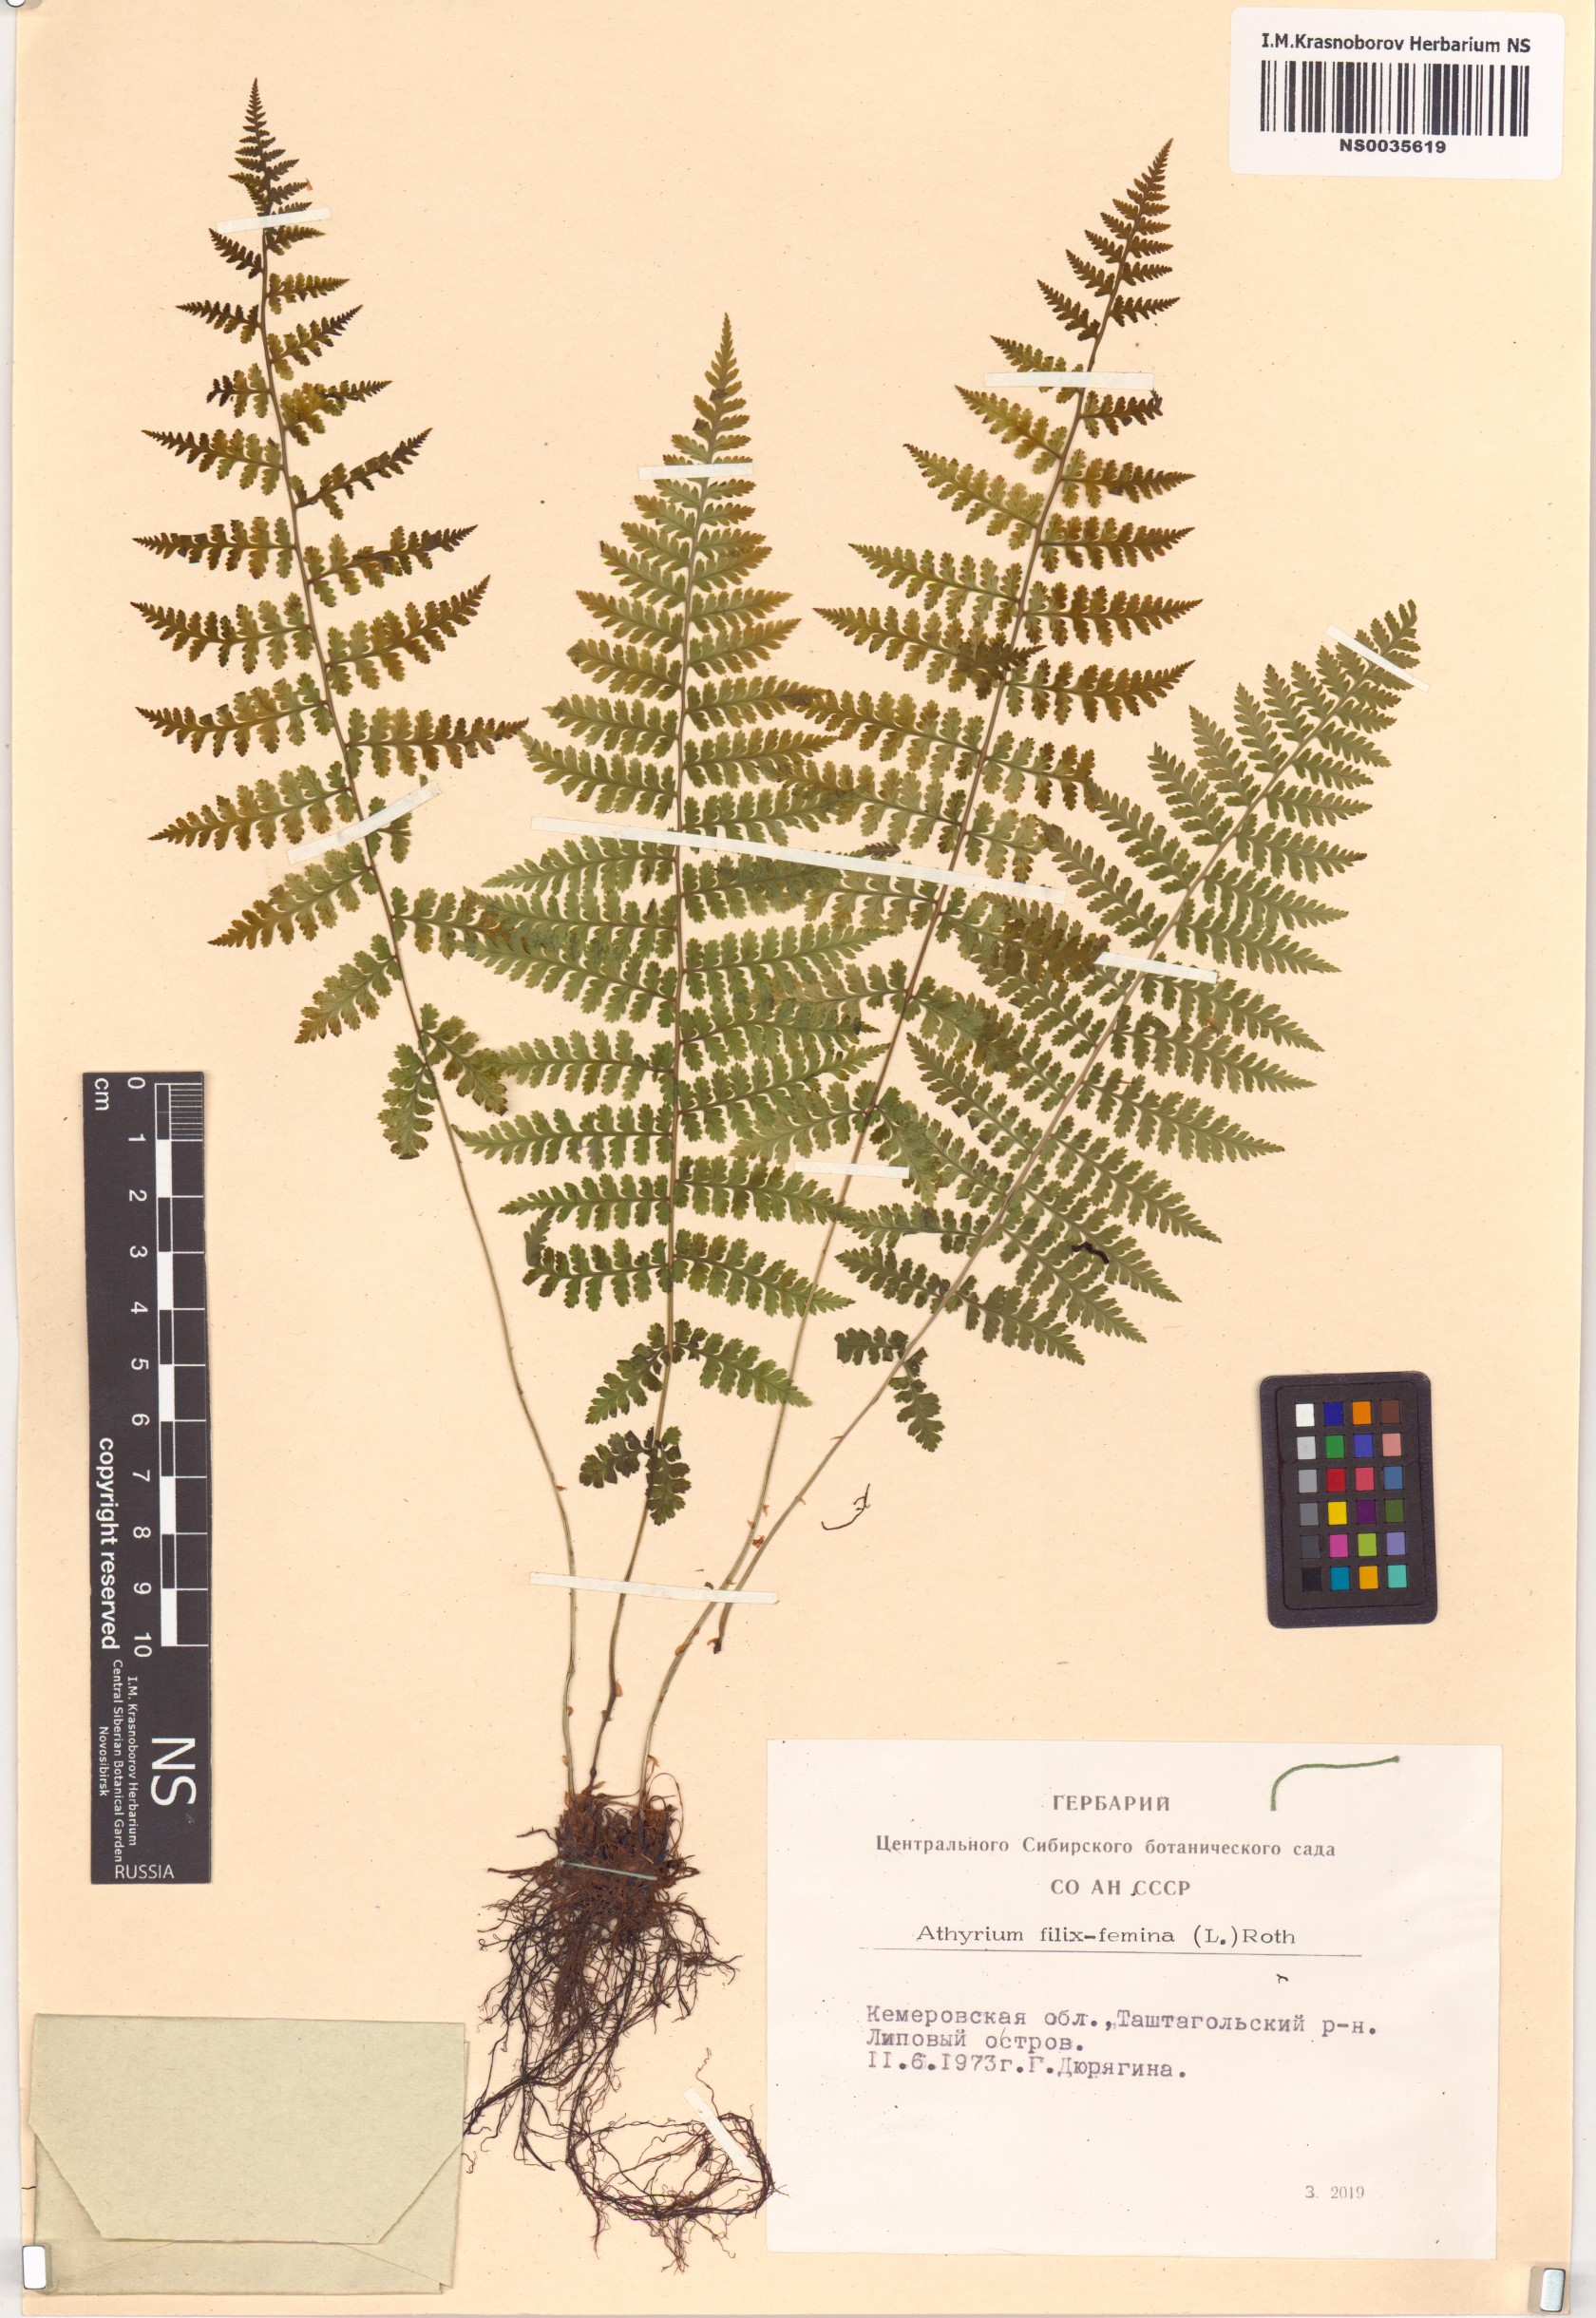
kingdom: Plantae
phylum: Tracheophyta
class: Polypodiopsida
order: Polypodiales
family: Athyriaceae
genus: Athyrium
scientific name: Athyrium filix-femina
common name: Lady fern
